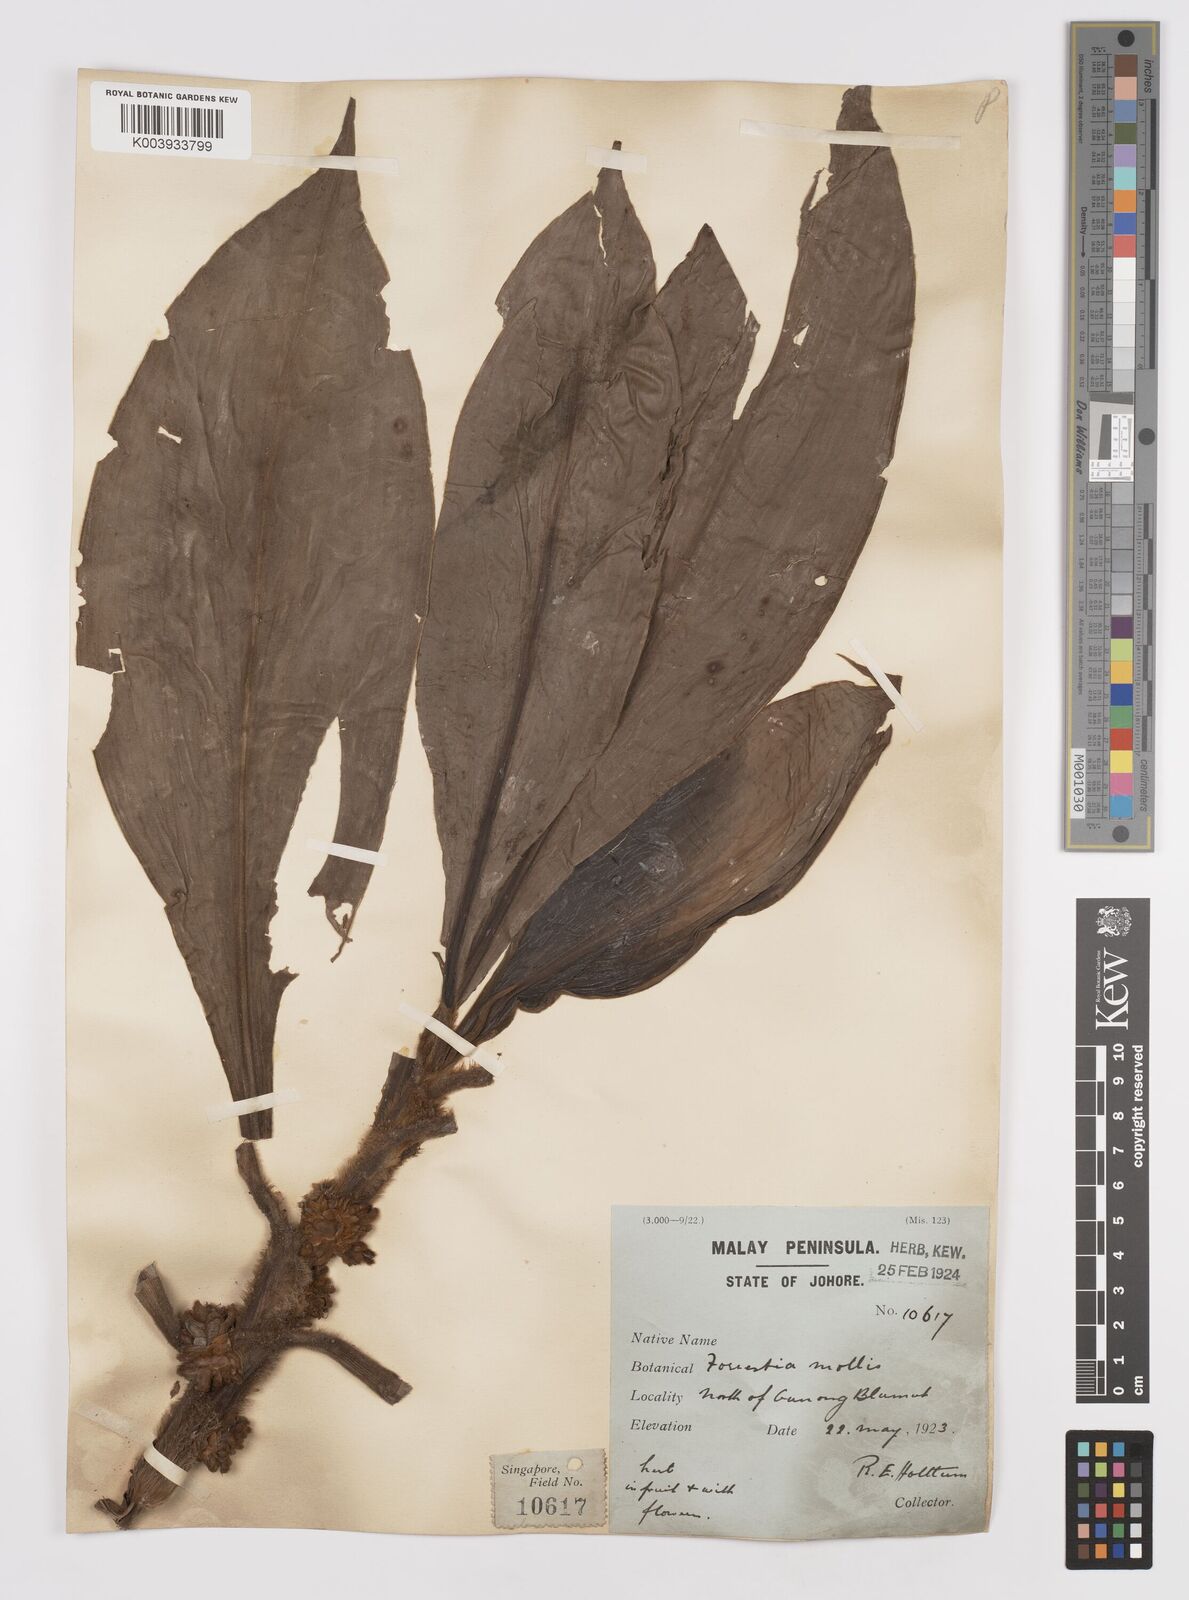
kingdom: Plantae
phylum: Tracheophyta
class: Liliopsida
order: Commelinales
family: Commelinaceae
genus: Amischotolype
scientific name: Amischotolype mollissima
